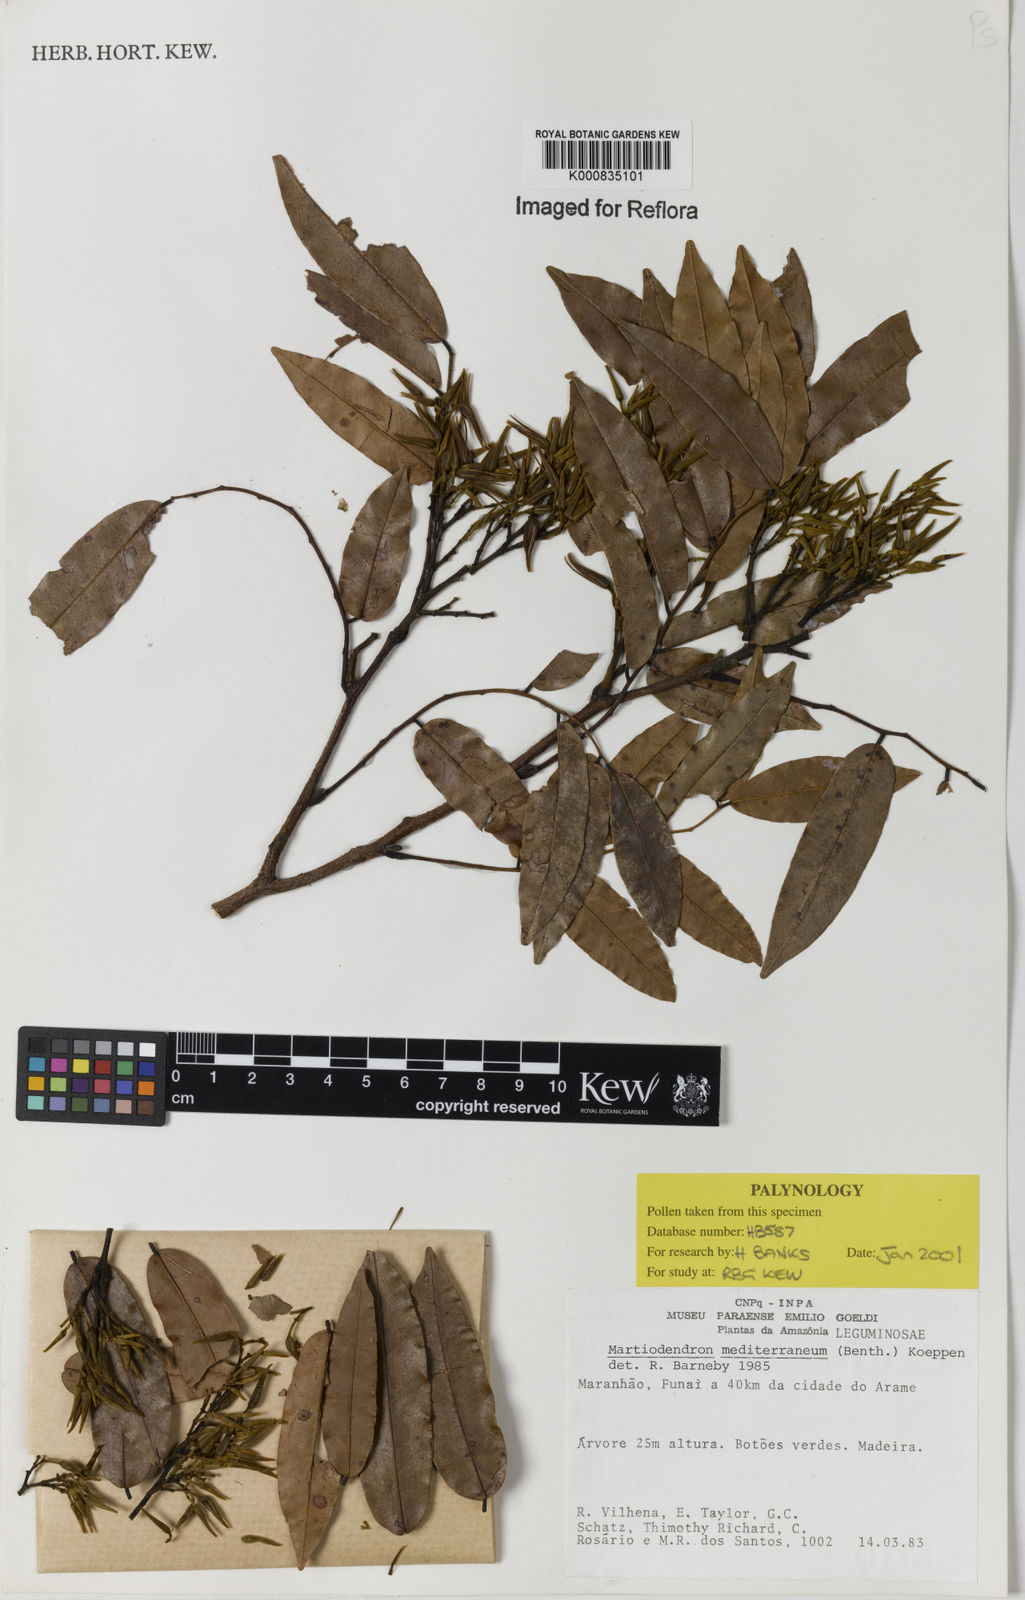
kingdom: Plantae
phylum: Tracheophyta
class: Magnoliopsida
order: Fabales
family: Fabaceae
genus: Martiodendron
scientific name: Martiodendron
